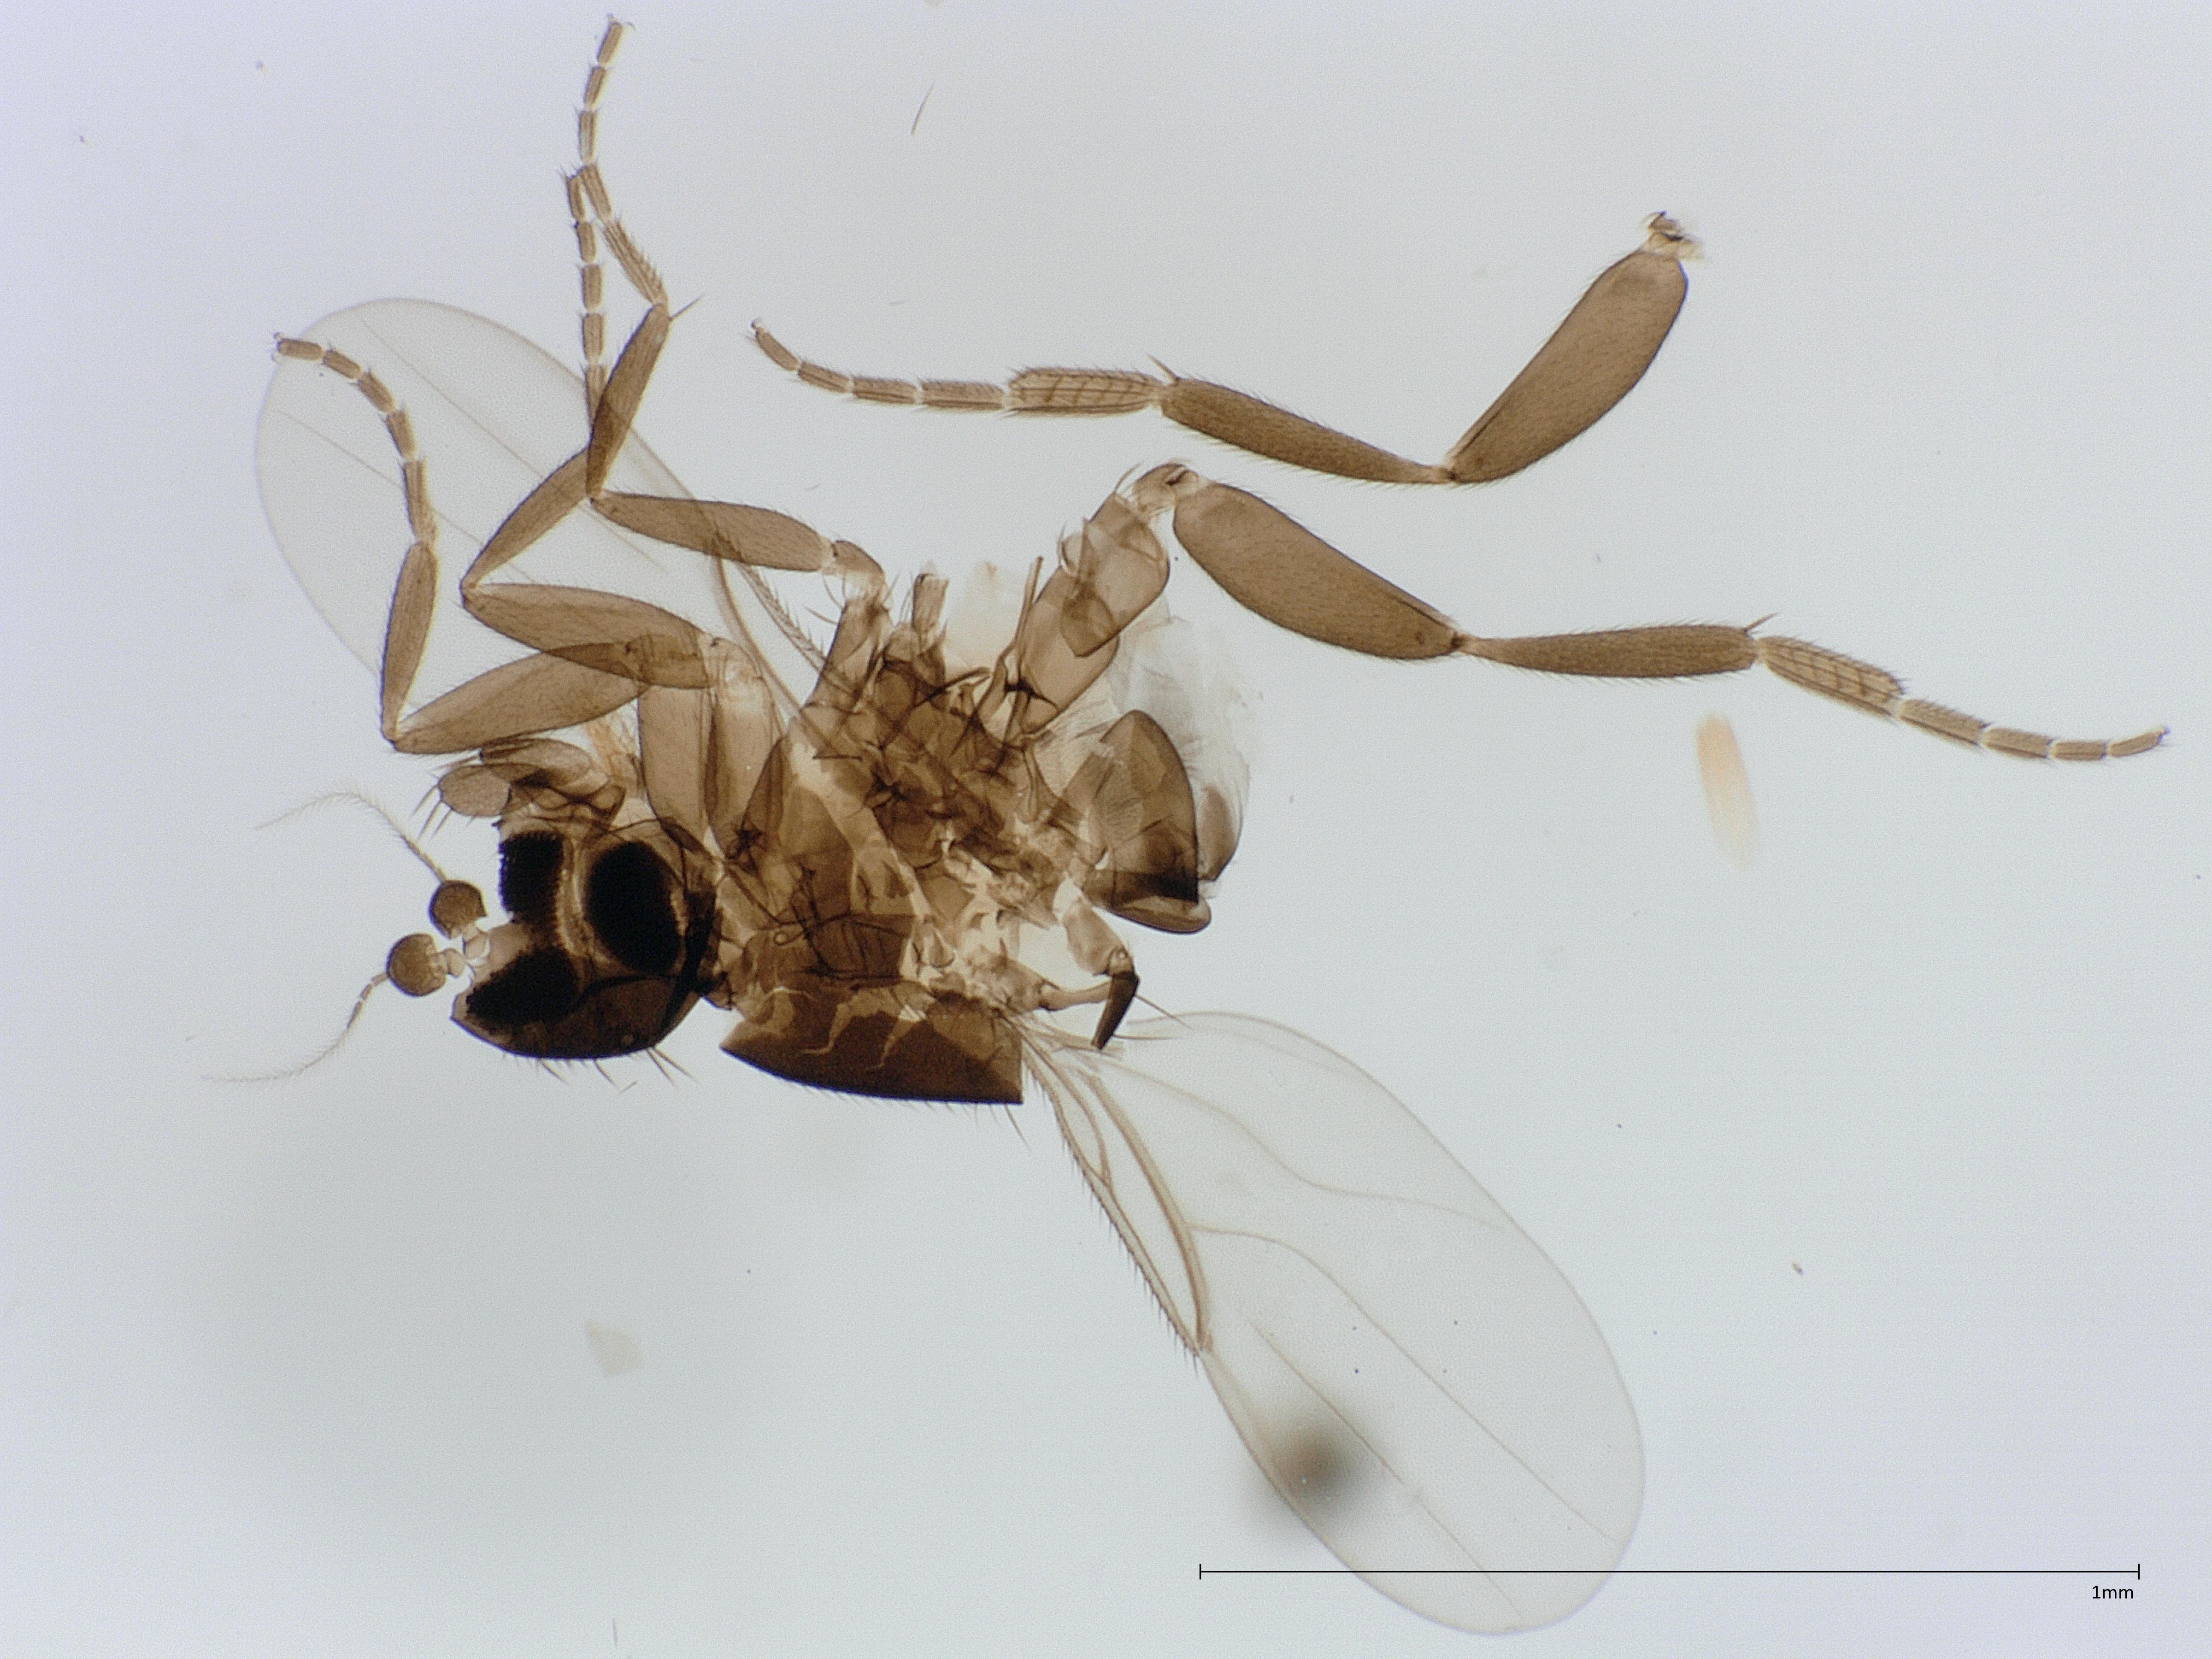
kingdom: Animalia
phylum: Arthropoda
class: Insecta
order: Diptera
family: Phoridae
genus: Metopina
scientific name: Metopina oligoneura
